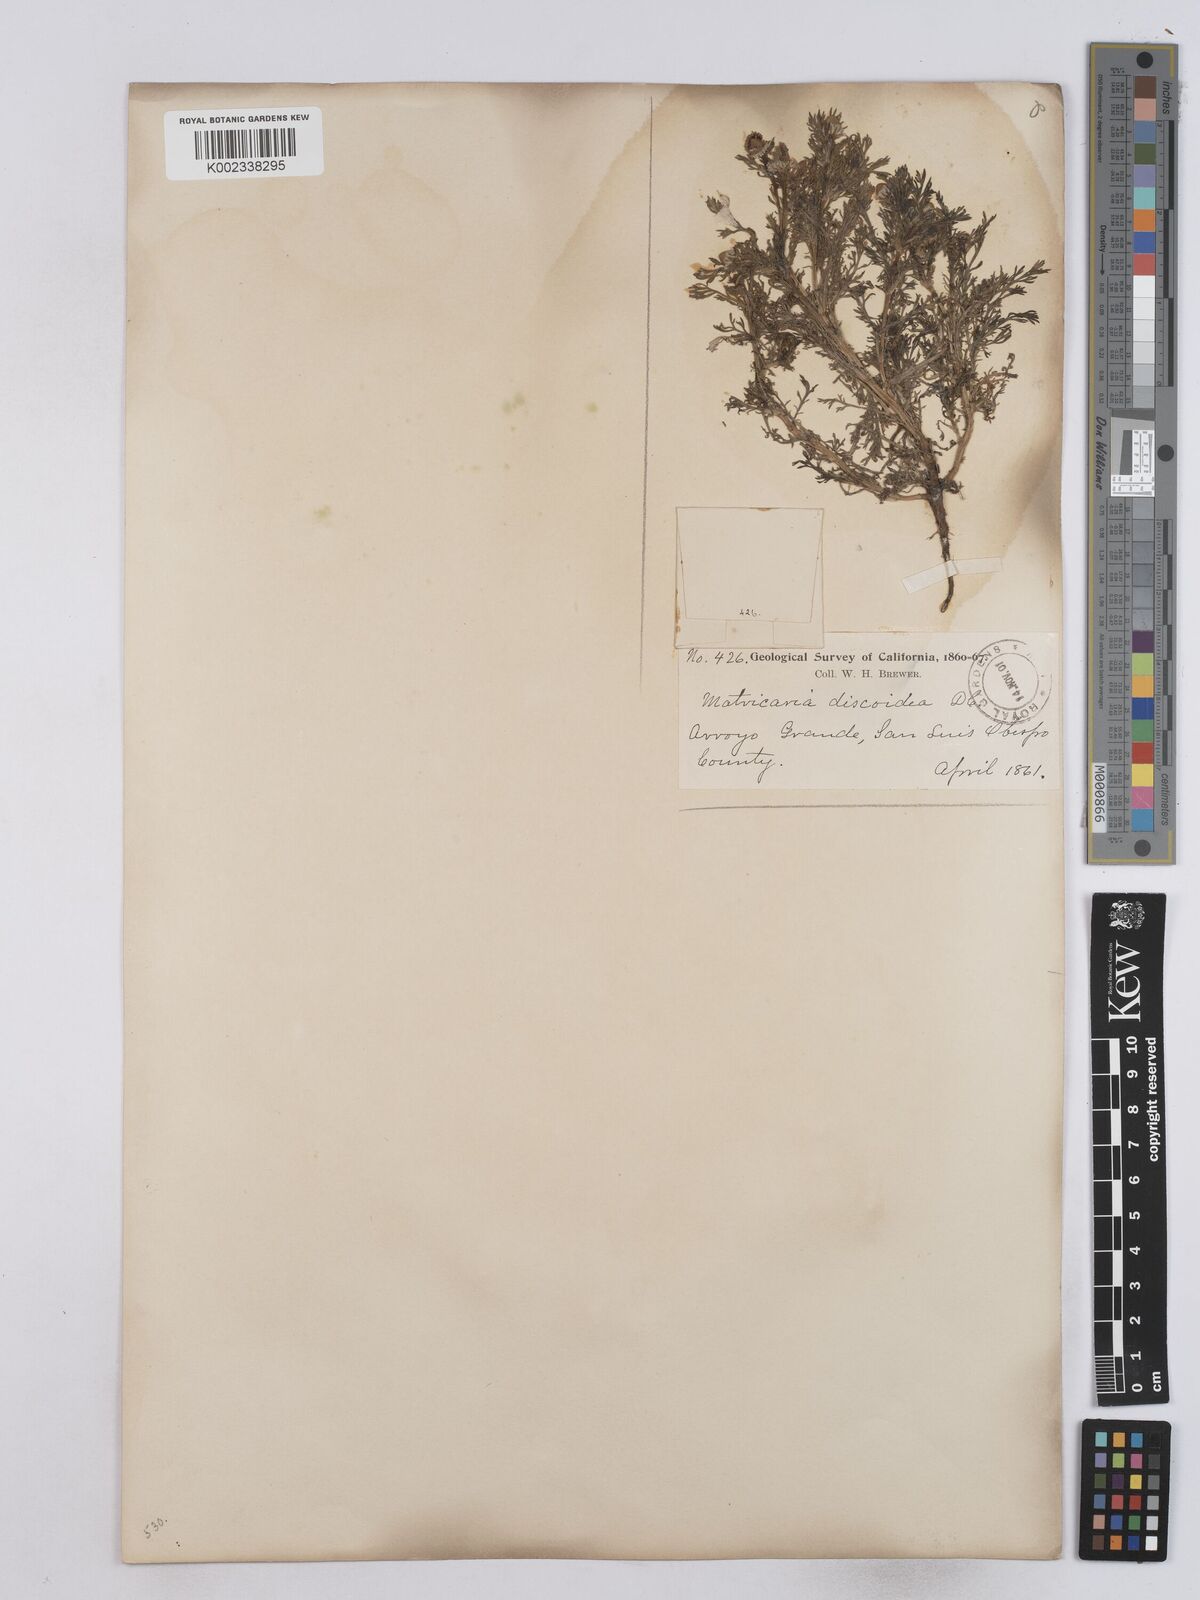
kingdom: Plantae
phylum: Tracheophyta
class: Magnoliopsida
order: Asterales
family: Asteraceae
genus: Matricaria
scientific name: Matricaria discoidea
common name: Disc mayweed
